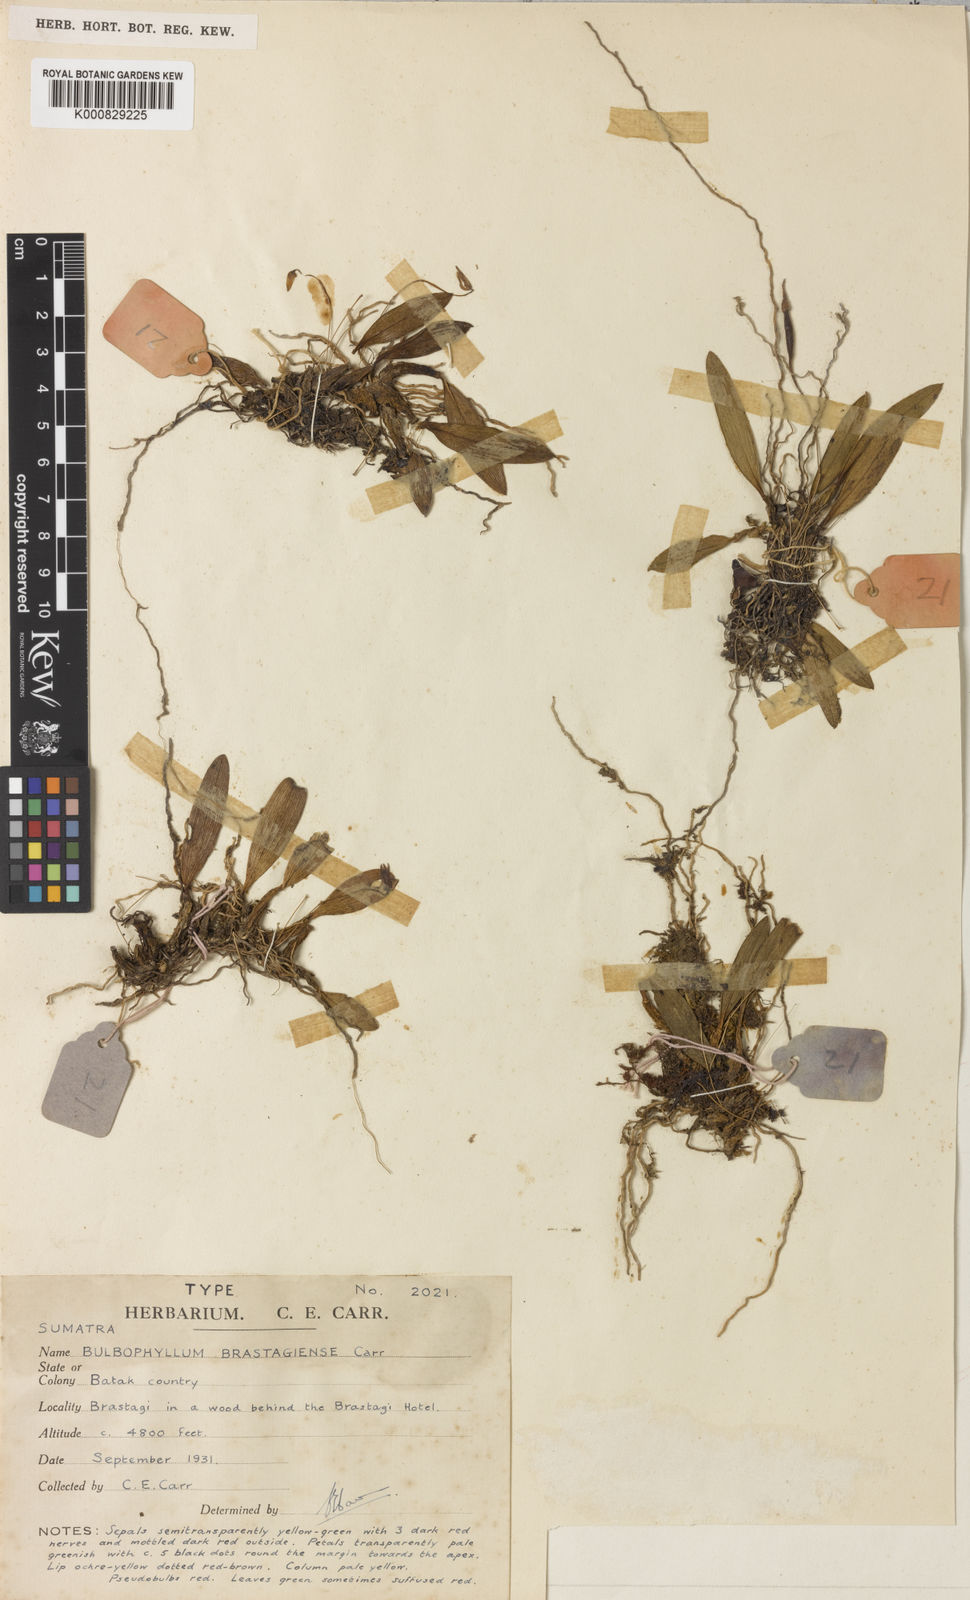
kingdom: Plantae
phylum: Tracheophyta
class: Liliopsida
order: Asparagales
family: Orchidaceae
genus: Bulbophyllum
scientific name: Bulbophyllum crepidiferum
